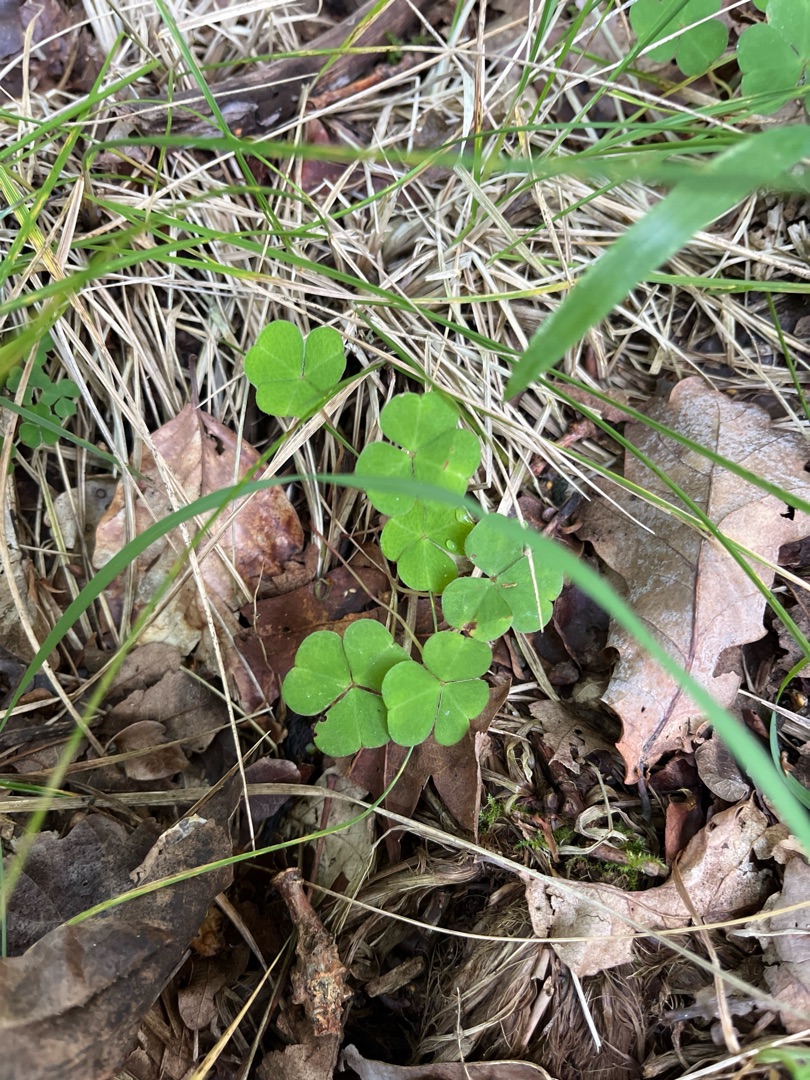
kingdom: Plantae
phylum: Tracheophyta
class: Magnoliopsida
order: Oxalidales
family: Oxalidaceae
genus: Oxalis
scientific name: Oxalis acetosella
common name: Skovsyre
